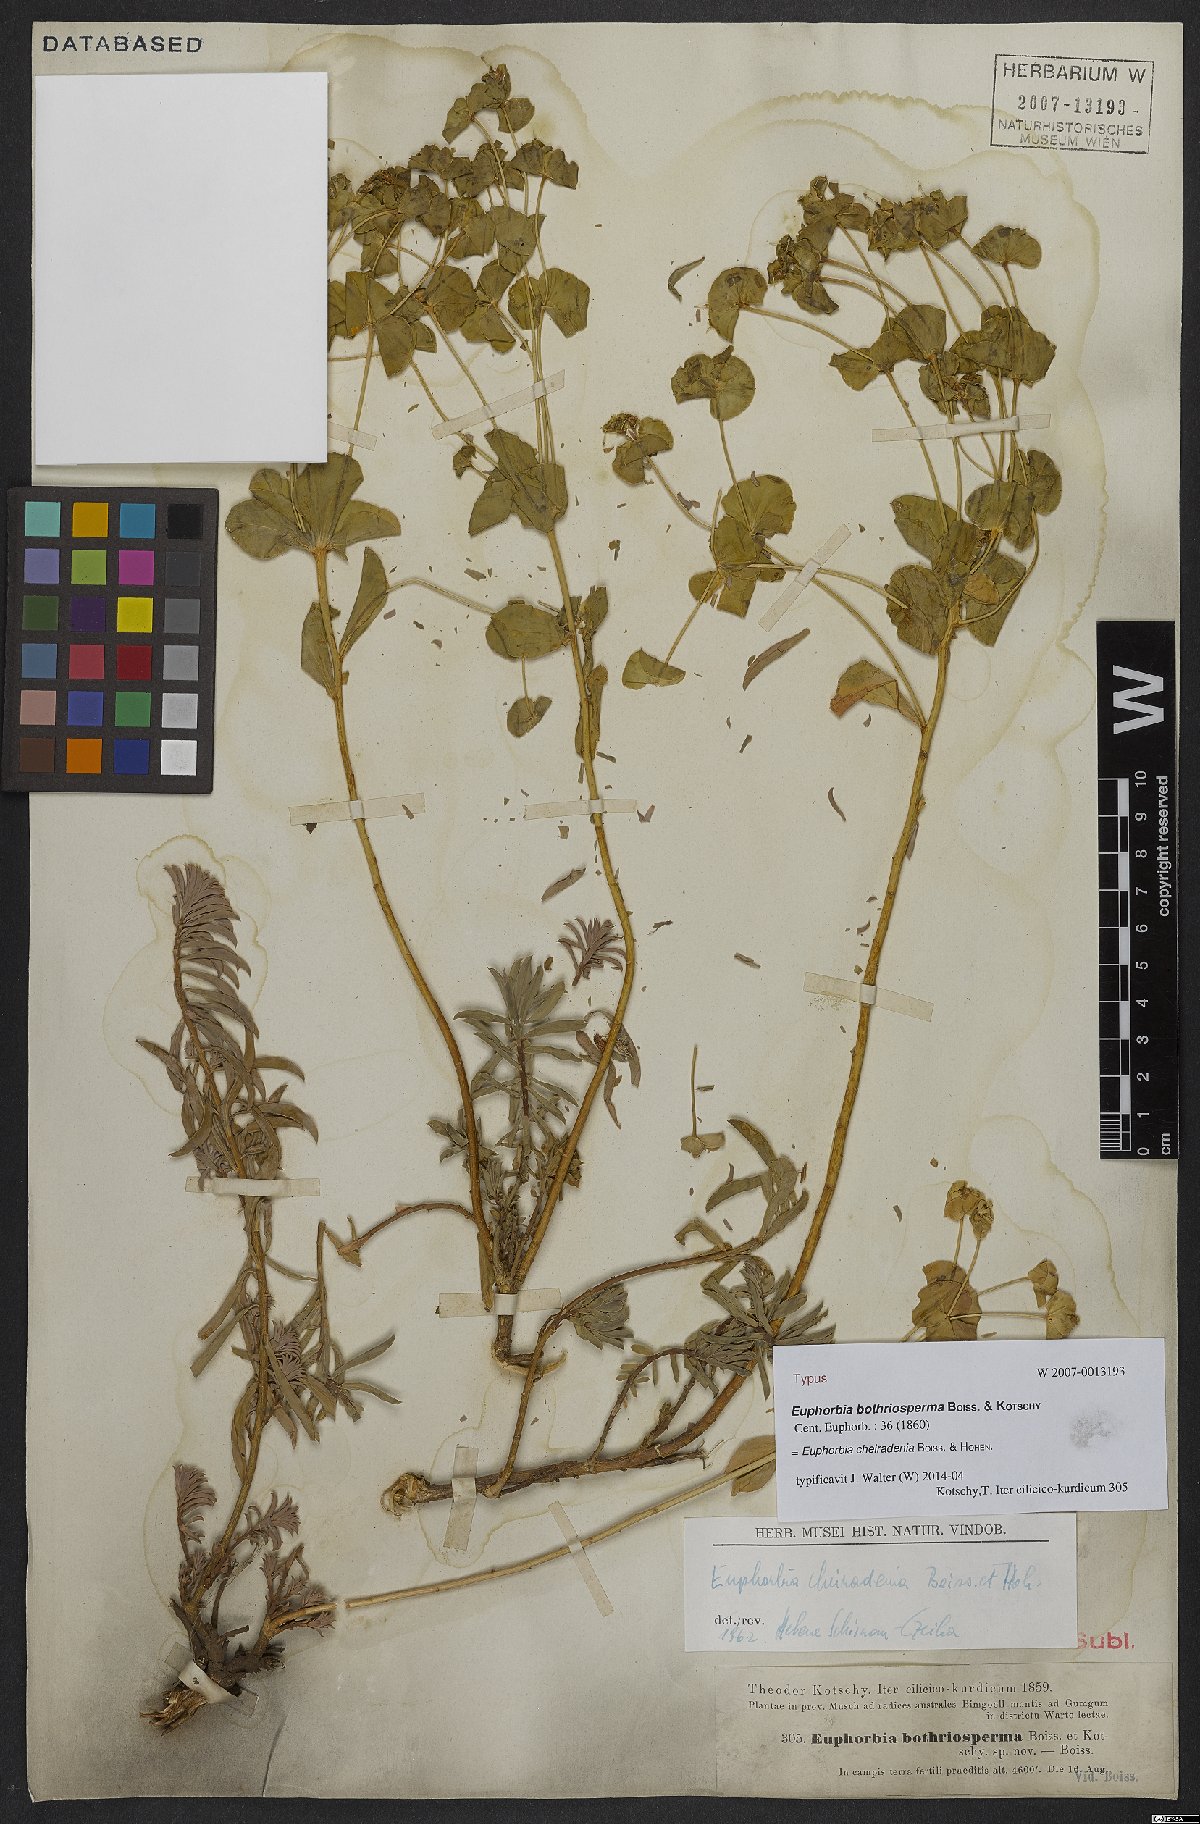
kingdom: Plantae
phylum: Tracheophyta
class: Magnoliopsida
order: Malpighiales
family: Euphorbiaceae
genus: Euphorbia
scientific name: Euphorbia cheiradenia
